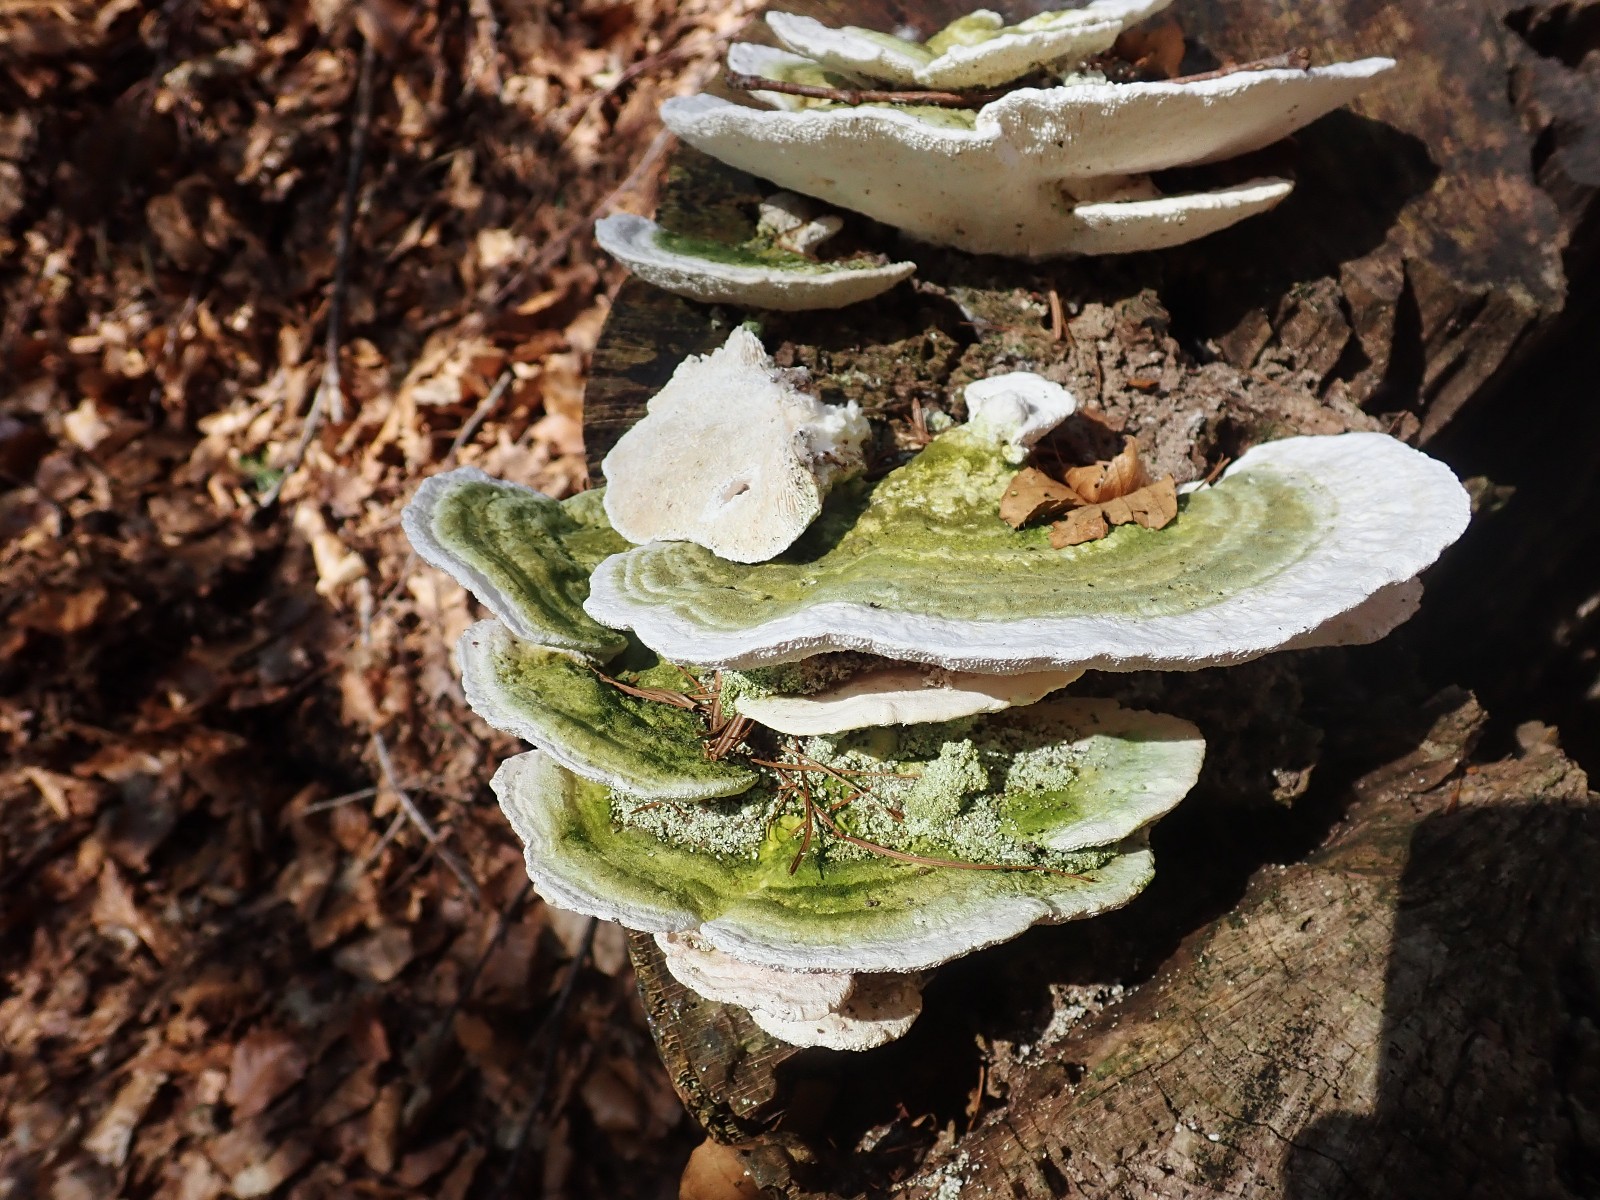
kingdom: Fungi
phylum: Basidiomycota
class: Agaricomycetes
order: Polyporales
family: Polyporaceae
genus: Trametes
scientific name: Trametes gibbosa
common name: puklet læderporesvamp
